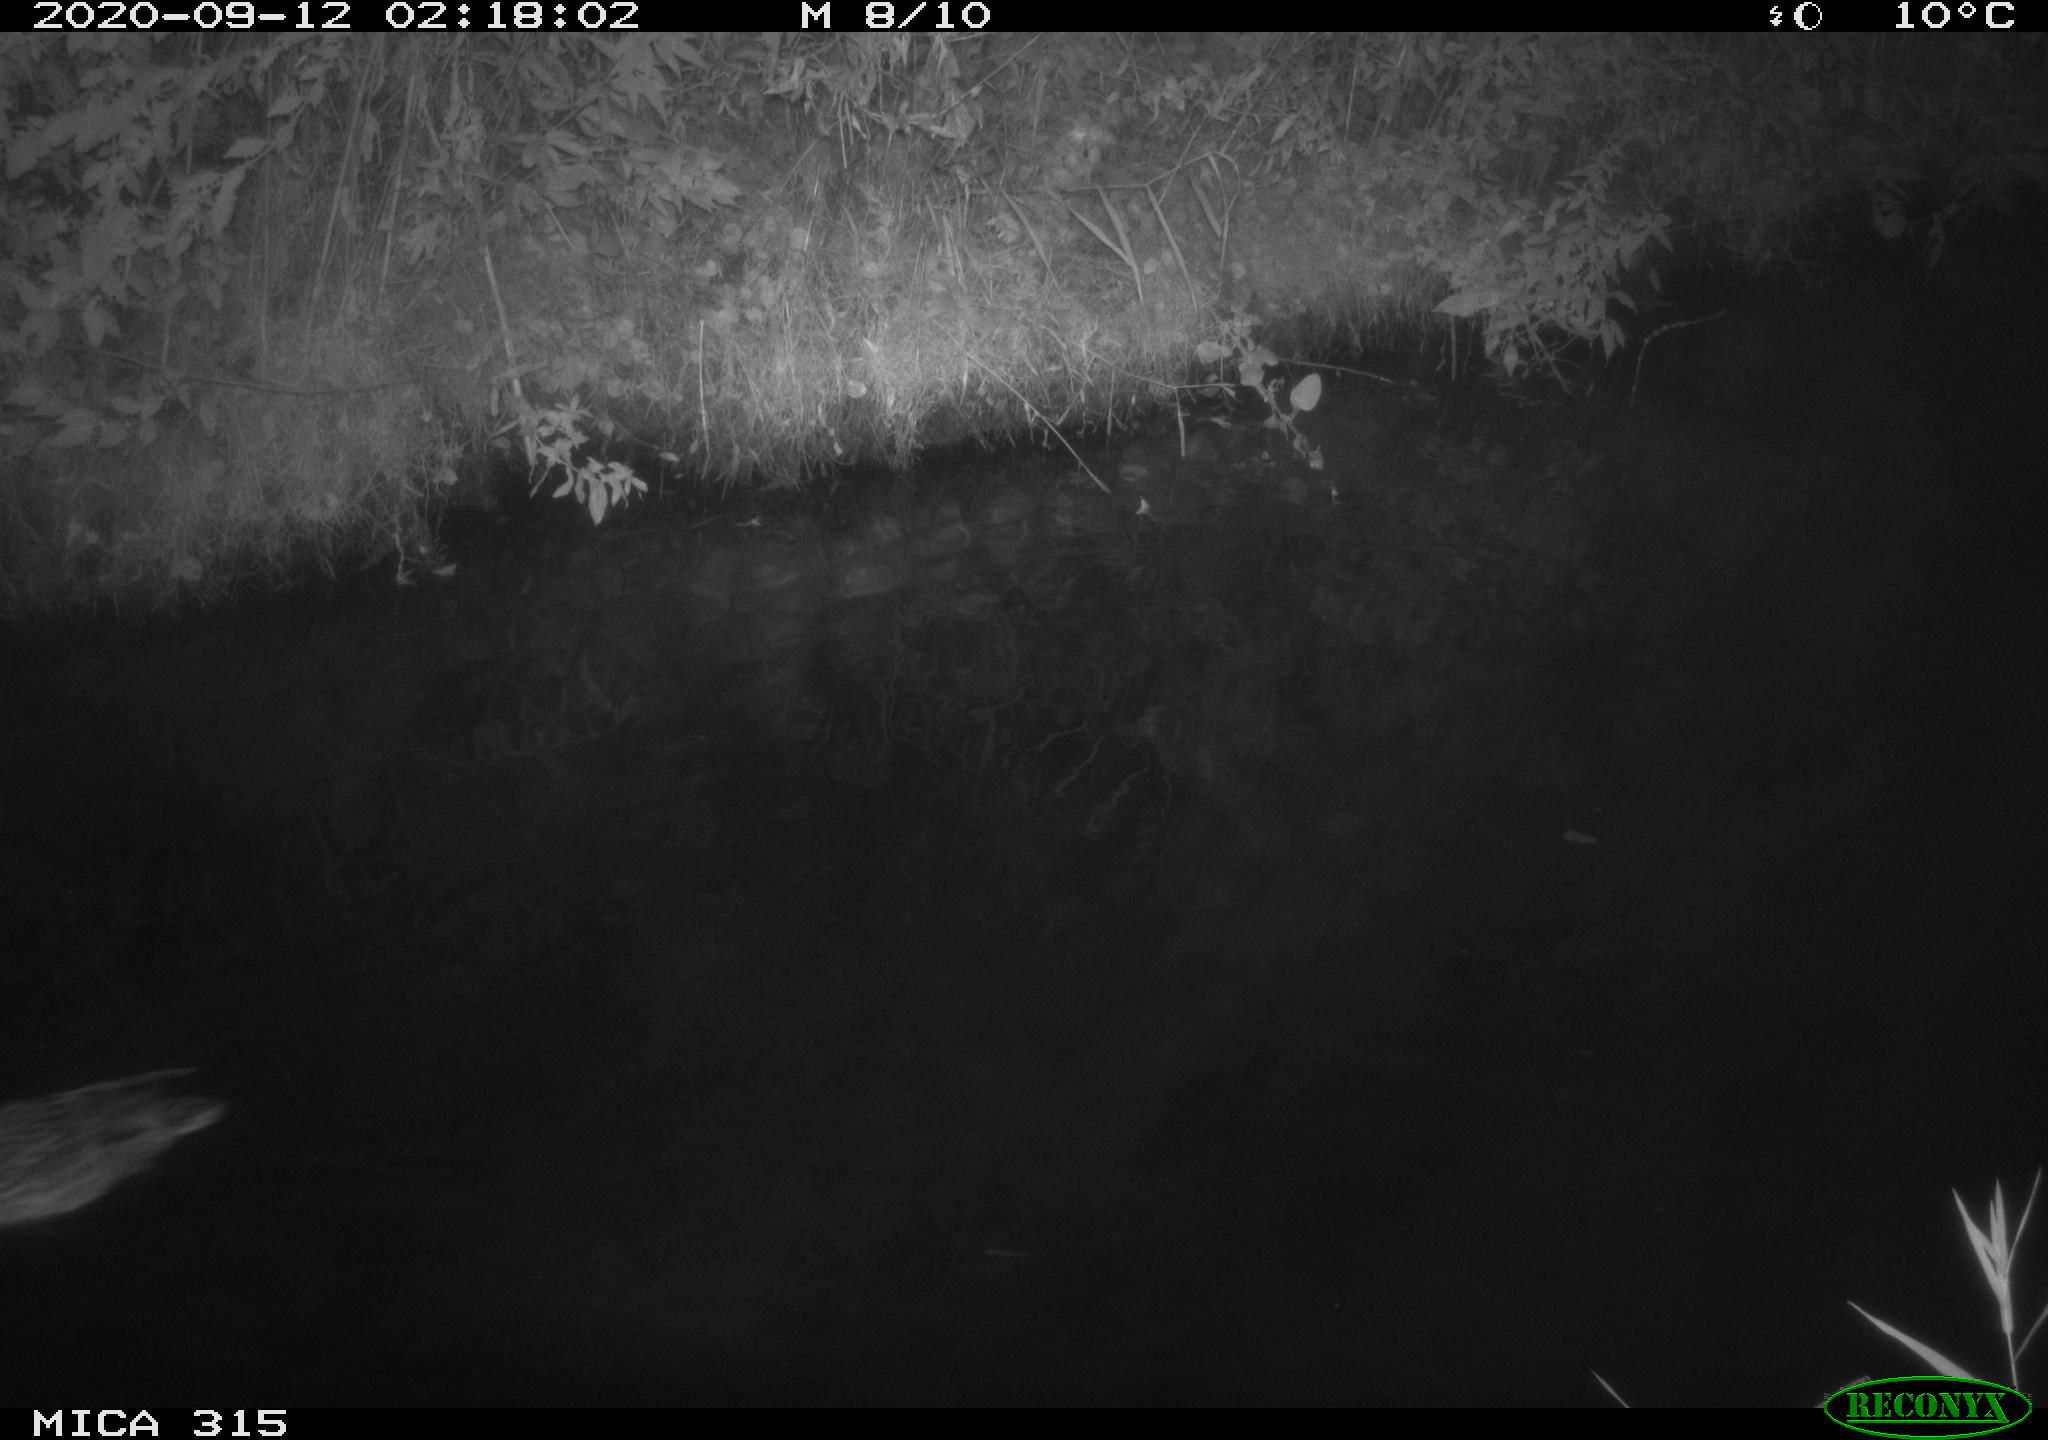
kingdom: Animalia
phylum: Chordata
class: Aves
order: Anseriformes
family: Anatidae
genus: Anas
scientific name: Anas platyrhynchos
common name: Mallard
